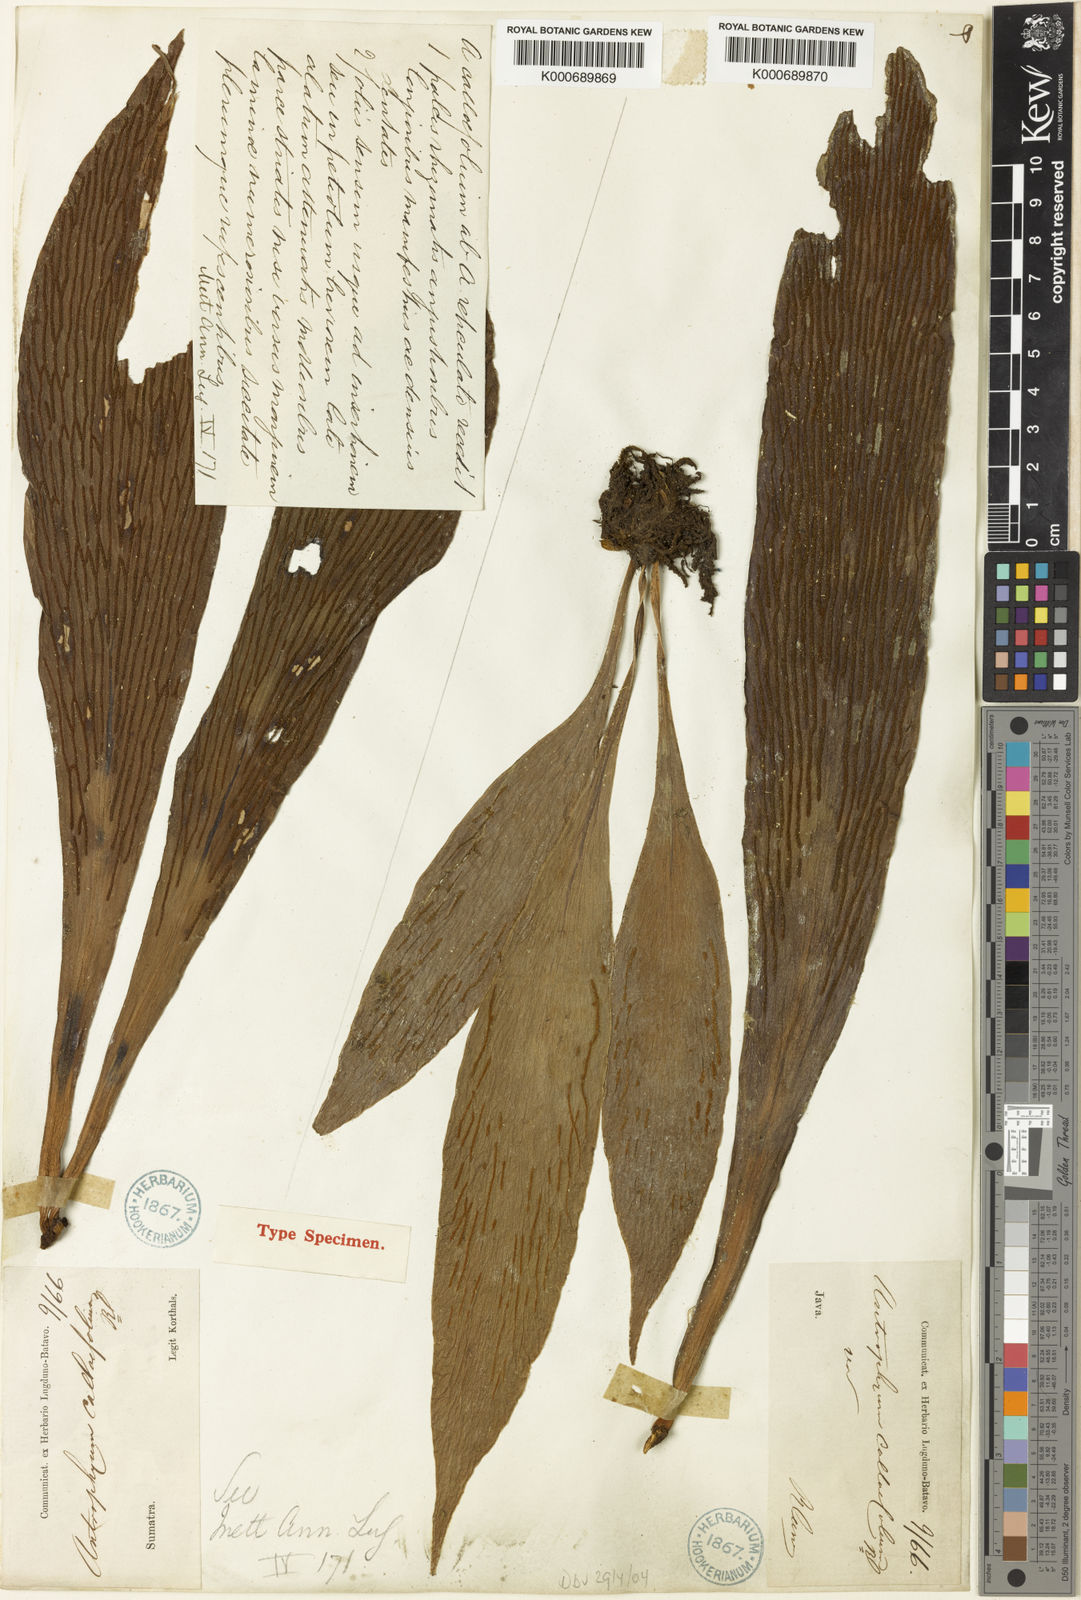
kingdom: Plantae
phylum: Tracheophyta
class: Polypodiopsida
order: Polypodiales
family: Pteridaceae
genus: Antrophyum
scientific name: Antrophyum callifolium
